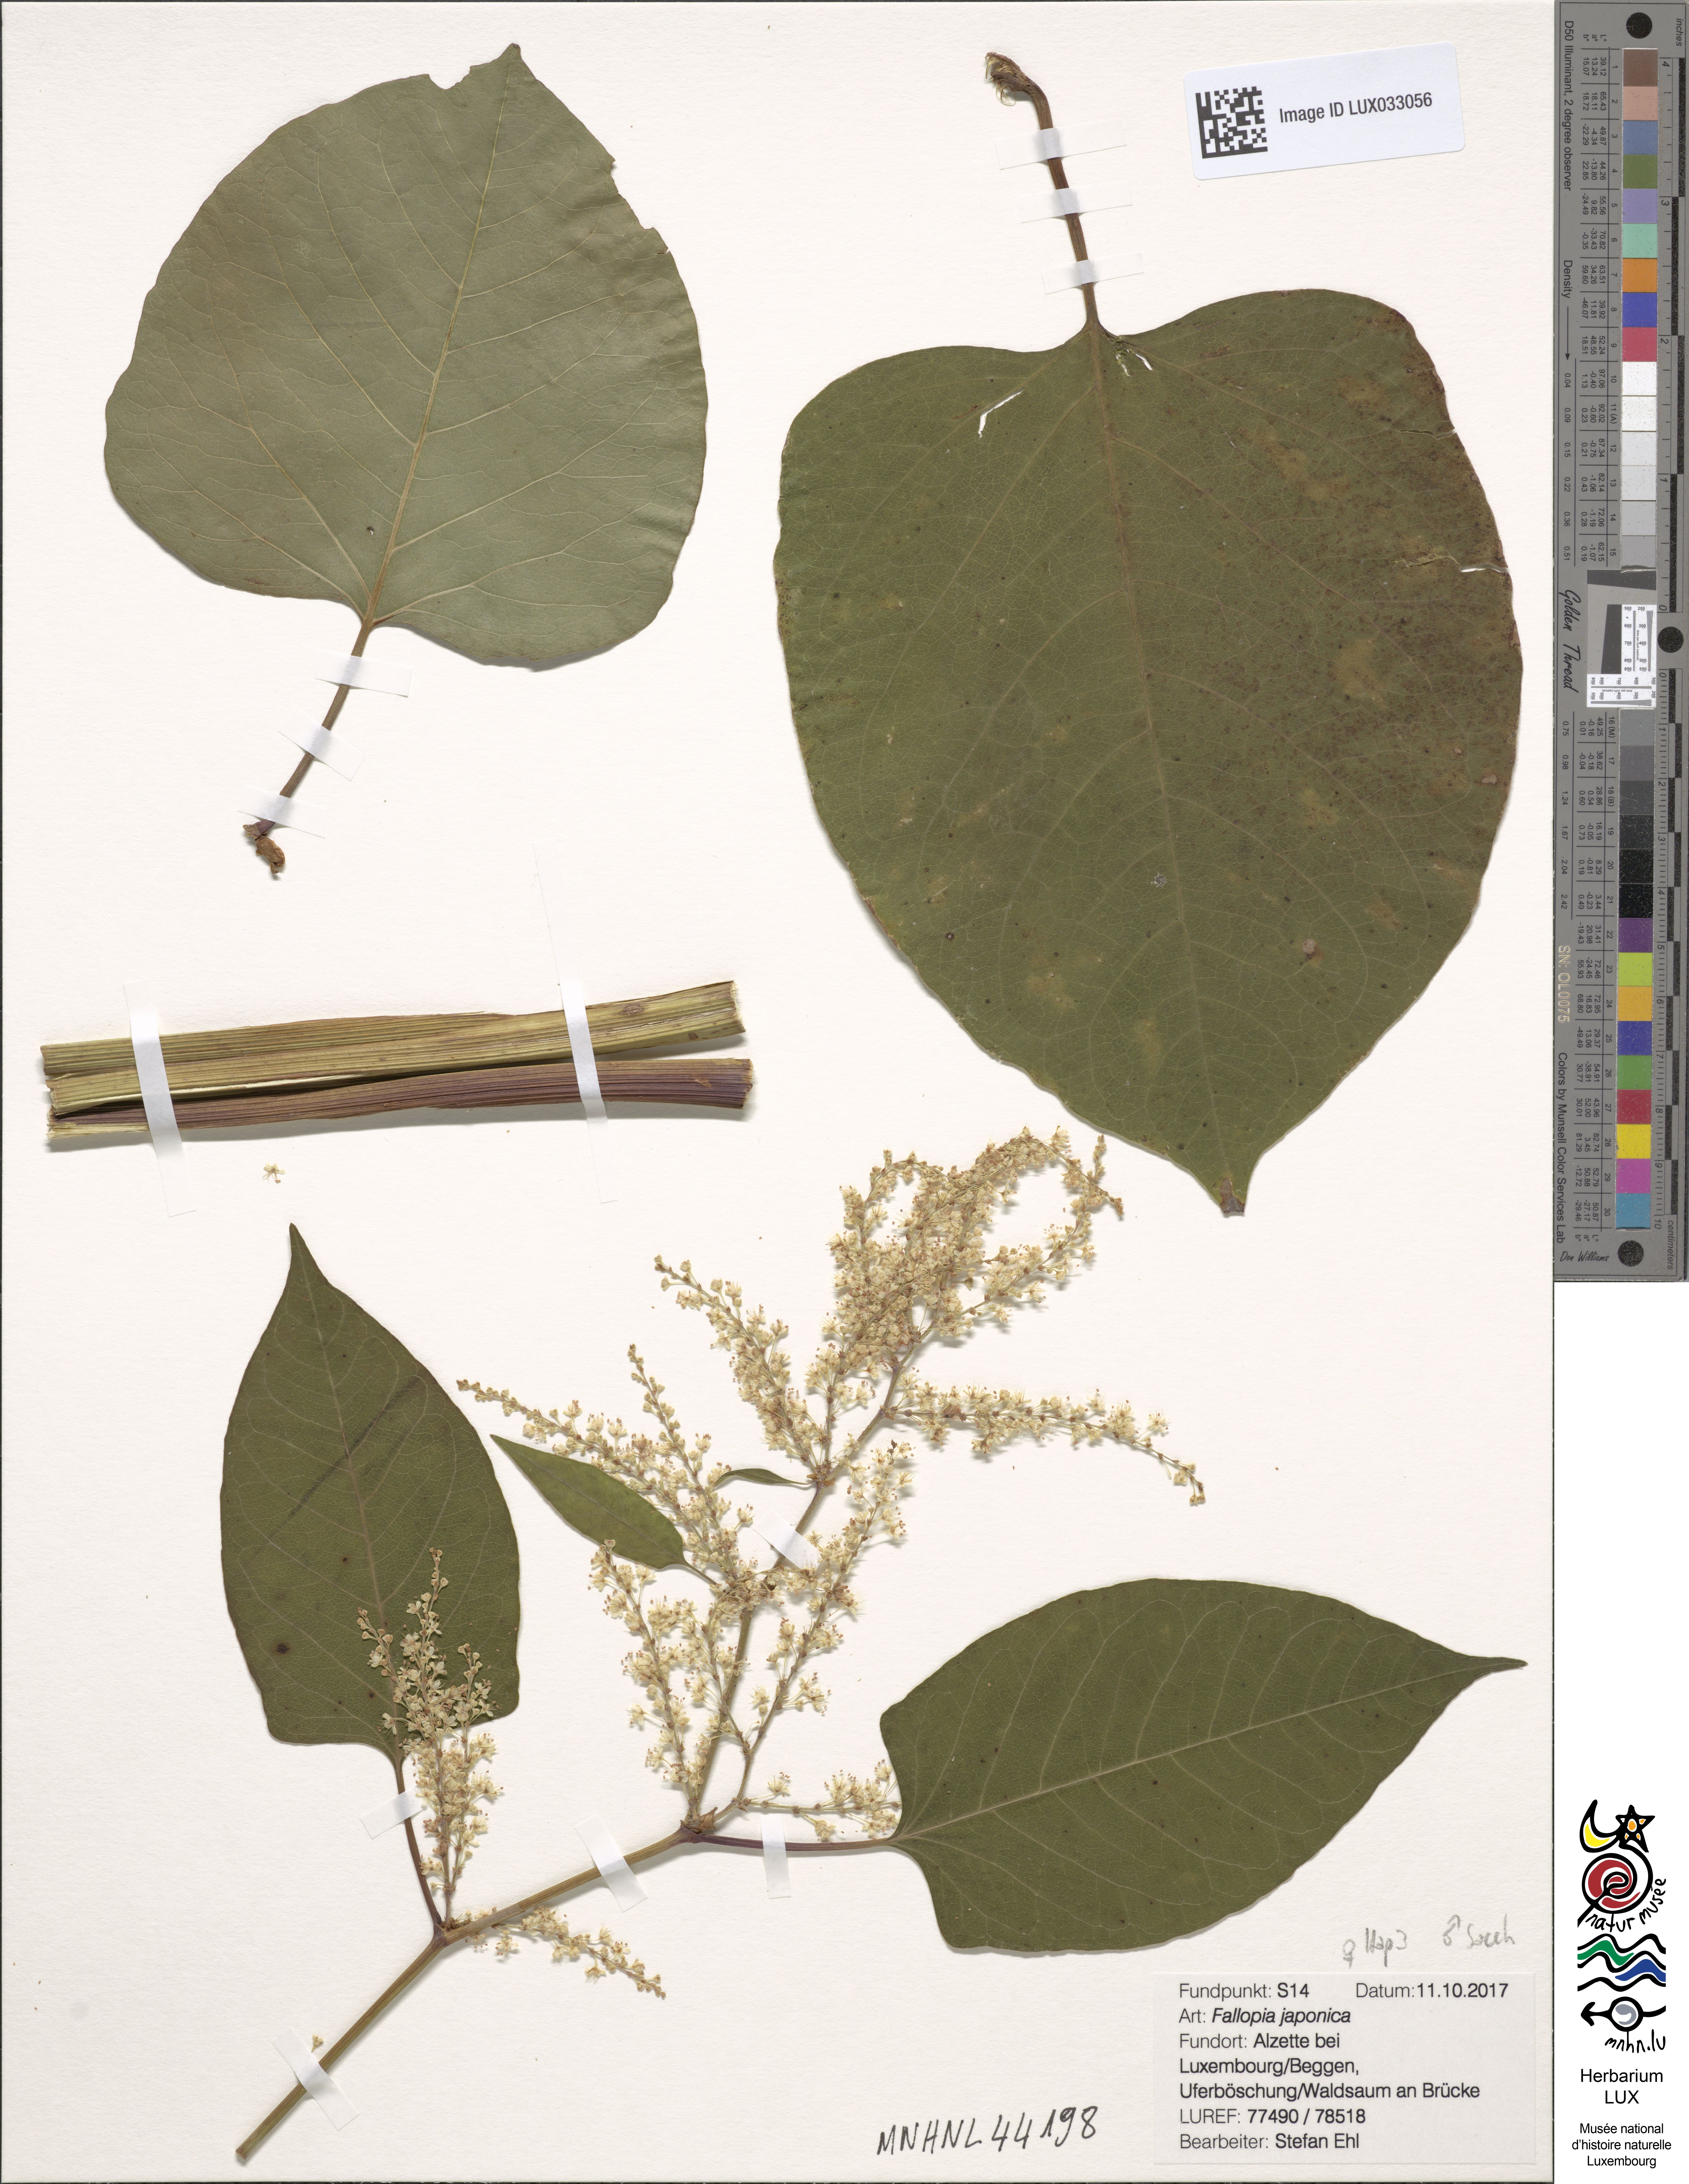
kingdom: Plantae
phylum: Tracheophyta
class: Magnoliopsida
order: Caryophyllales
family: Polygonaceae
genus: Reynoutria
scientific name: Reynoutria japonica
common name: Japanese knotweed
